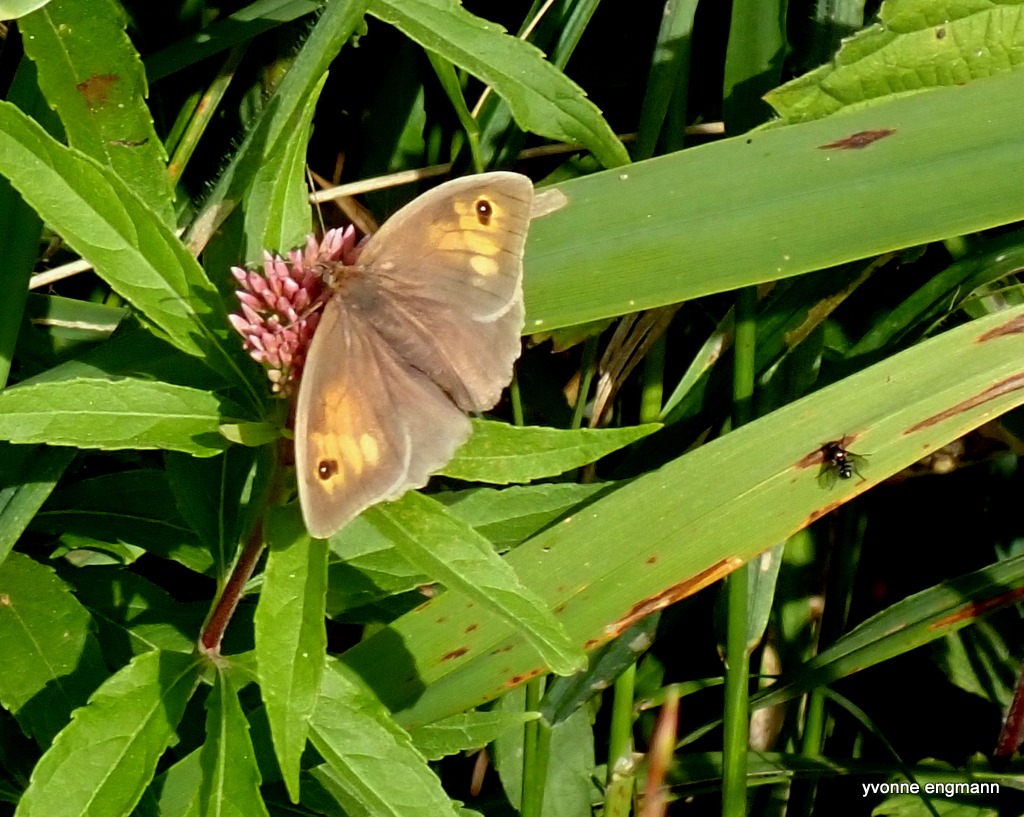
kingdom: Animalia
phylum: Arthropoda
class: Insecta
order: Lepidoptera
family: Nymphalidae
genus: Maniola
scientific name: Maniola jurtina
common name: Græsrandøje
